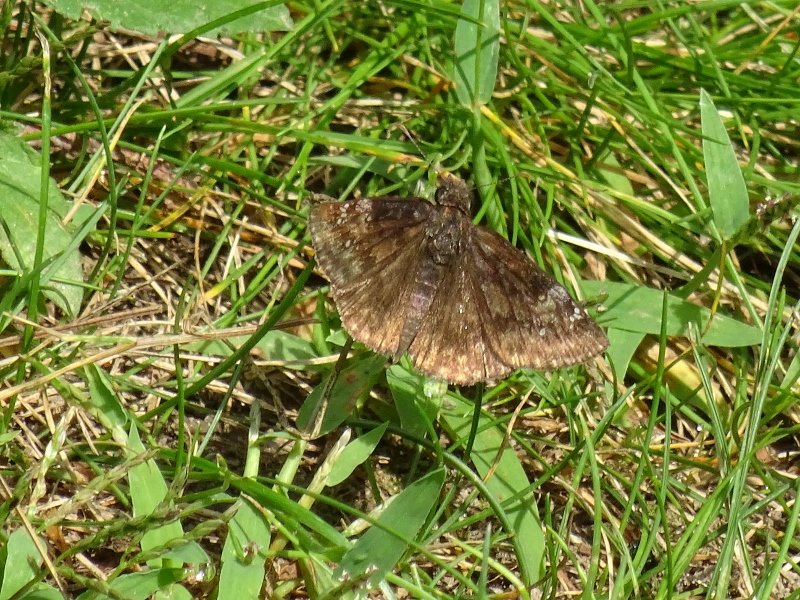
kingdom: Animalia
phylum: Arthropoda
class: Insecta
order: Lepidoptera
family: Hesperiidae
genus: Gesta
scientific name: Gesta
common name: Wild Indigo Duskywing
